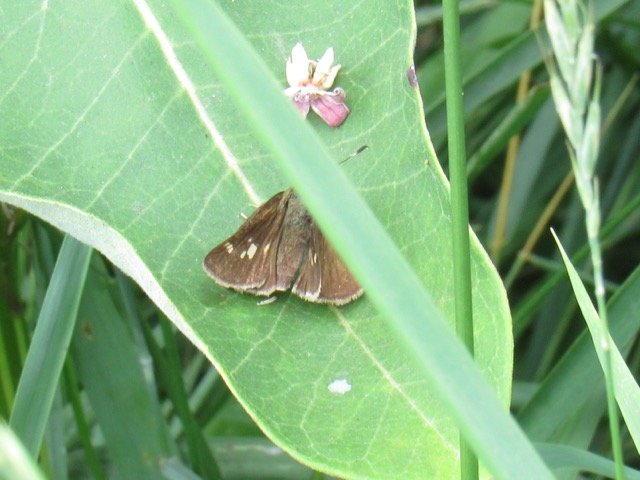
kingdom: Animalia
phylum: Arthropoda
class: Insecta
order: Lepidoptera
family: Hesperiidae
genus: Vernia
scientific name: Vernia verna
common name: Little Glassywing
